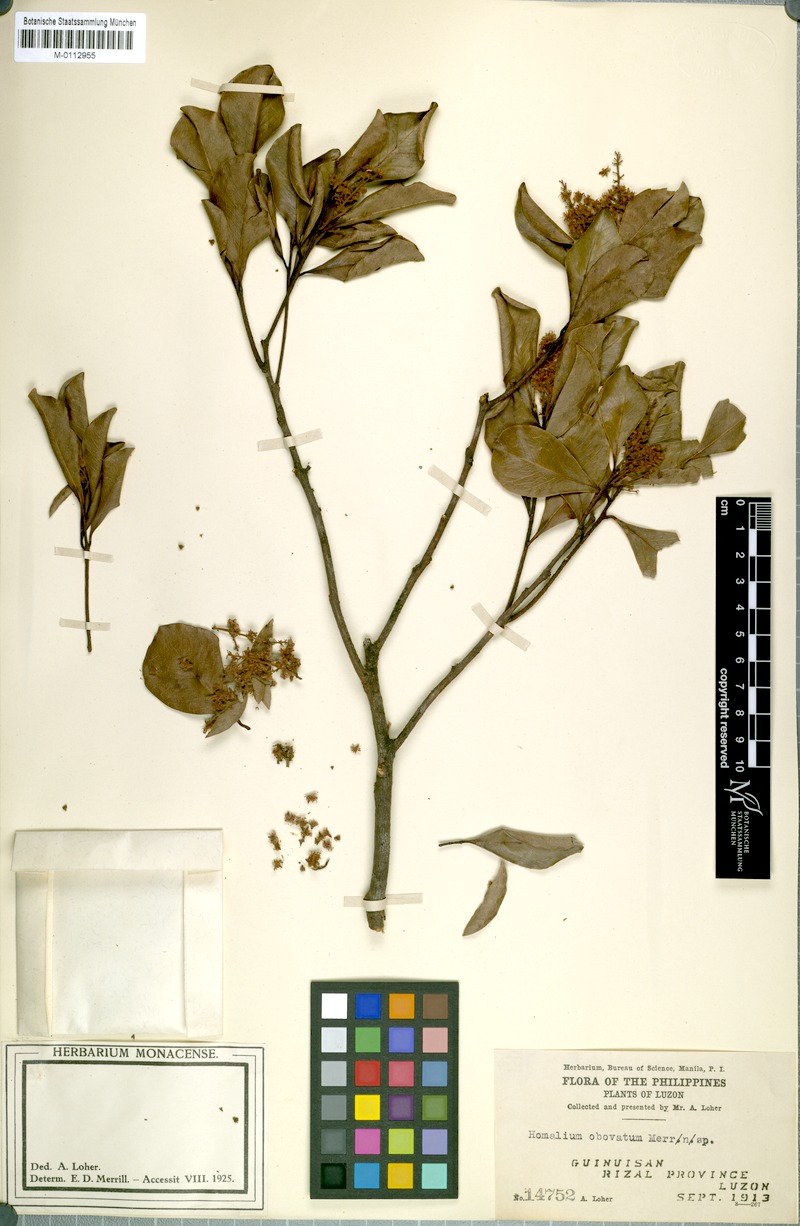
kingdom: Plantae
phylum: Tracheophyta
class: Magnoliopsida
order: Malpighiales
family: Salicaceae
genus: Homalium
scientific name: Homalium panayanum
